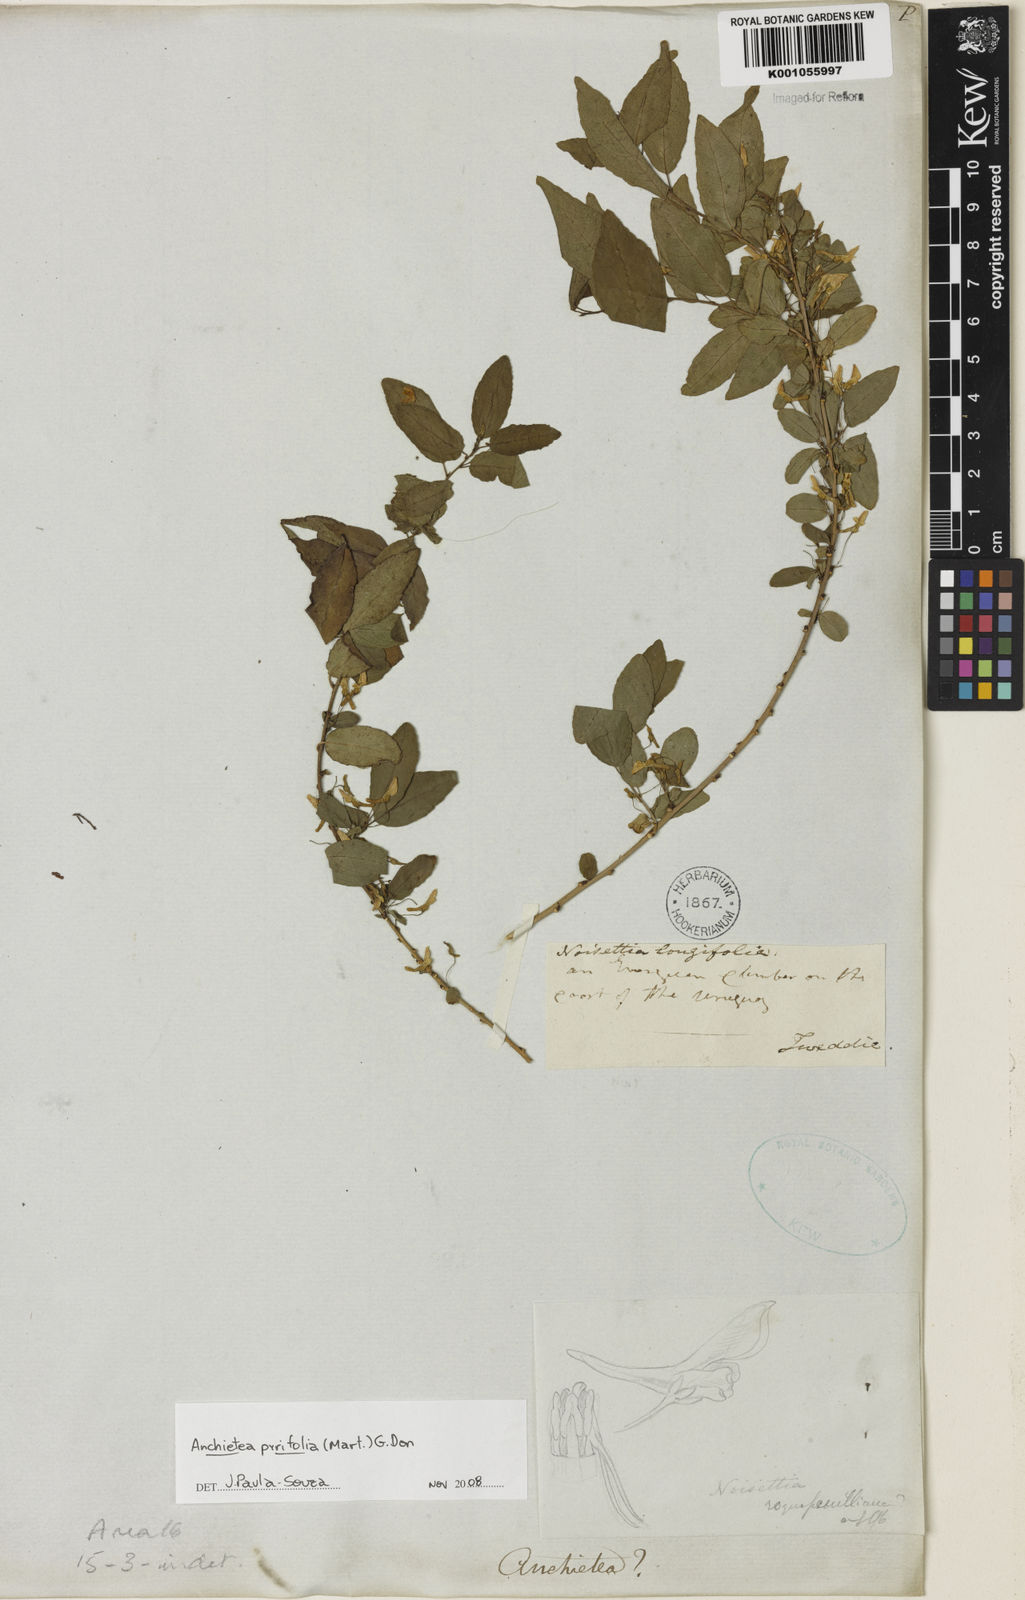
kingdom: Plantae
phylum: Tracheophyta
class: Magnoliopsida
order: Malpighiales
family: Violaceae
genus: Anchietea
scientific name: Anchietea pyrifolia
